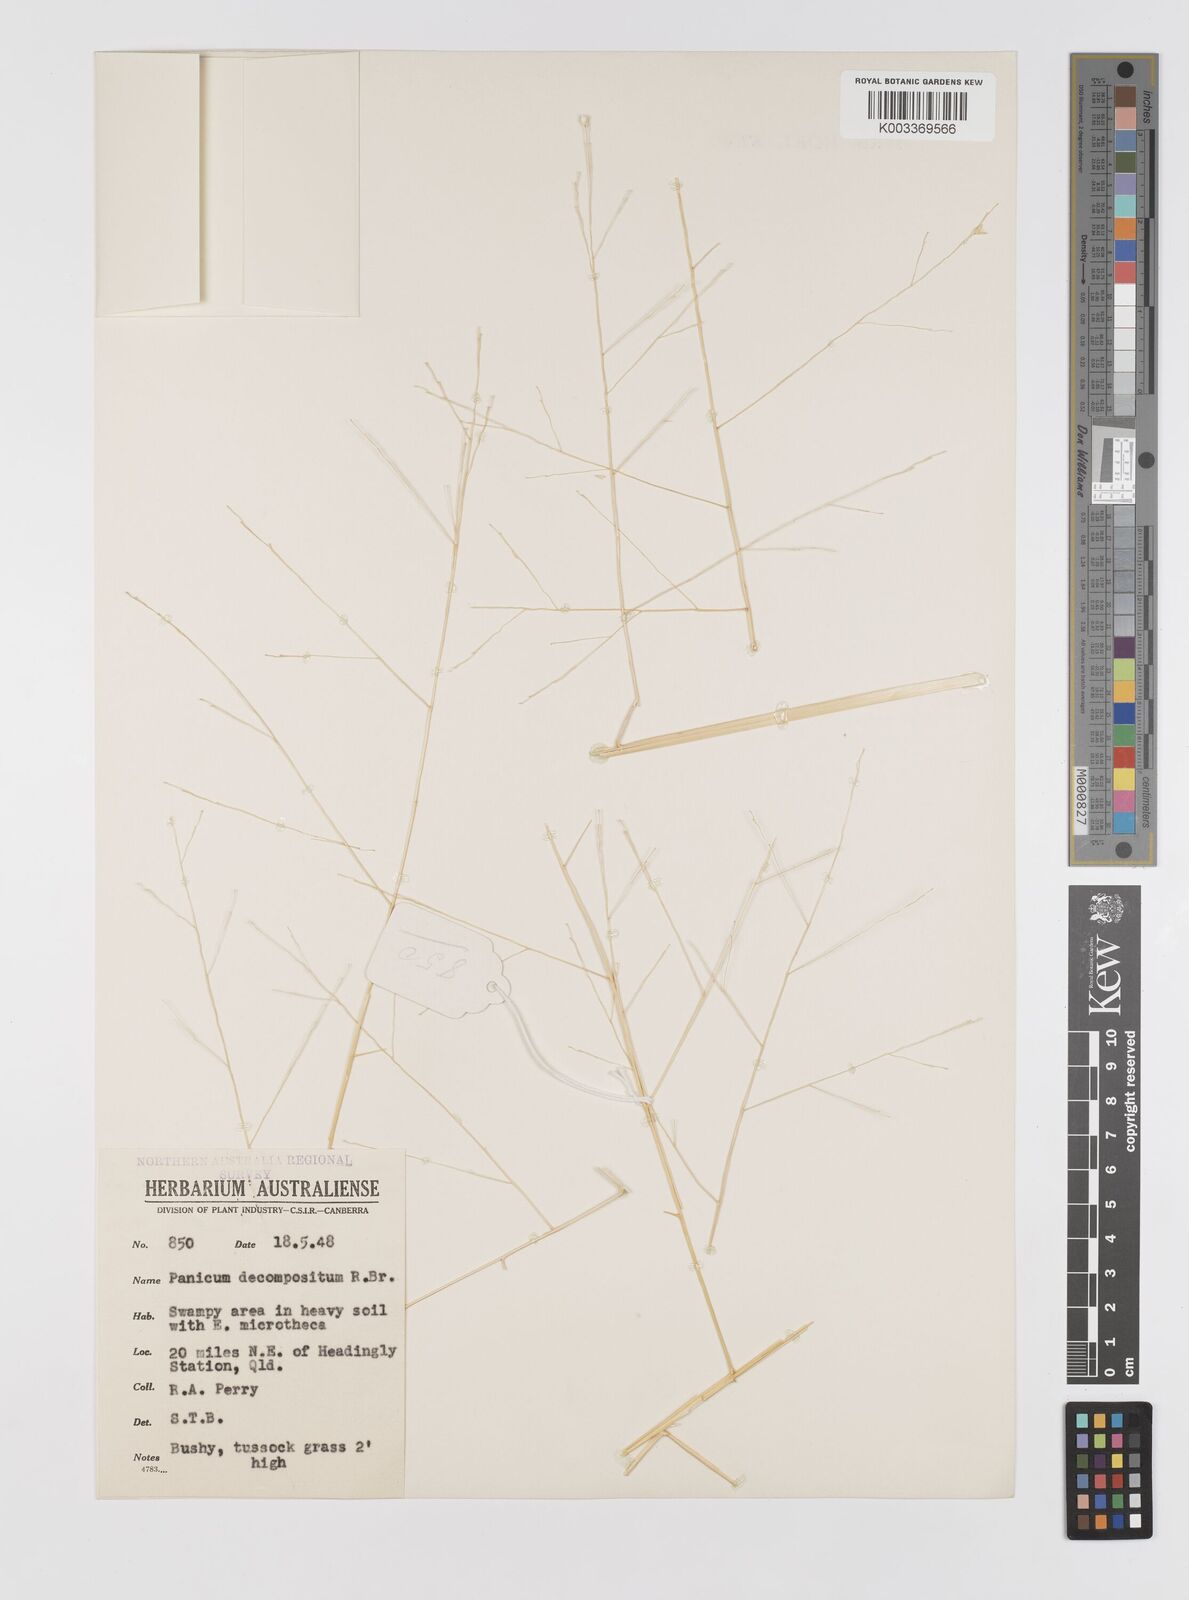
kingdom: Plantae
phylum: Tracheophyta
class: Liliopsida
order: Poales
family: Poaceae
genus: Panicum
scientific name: Panicum decompositum
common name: Australian millet
